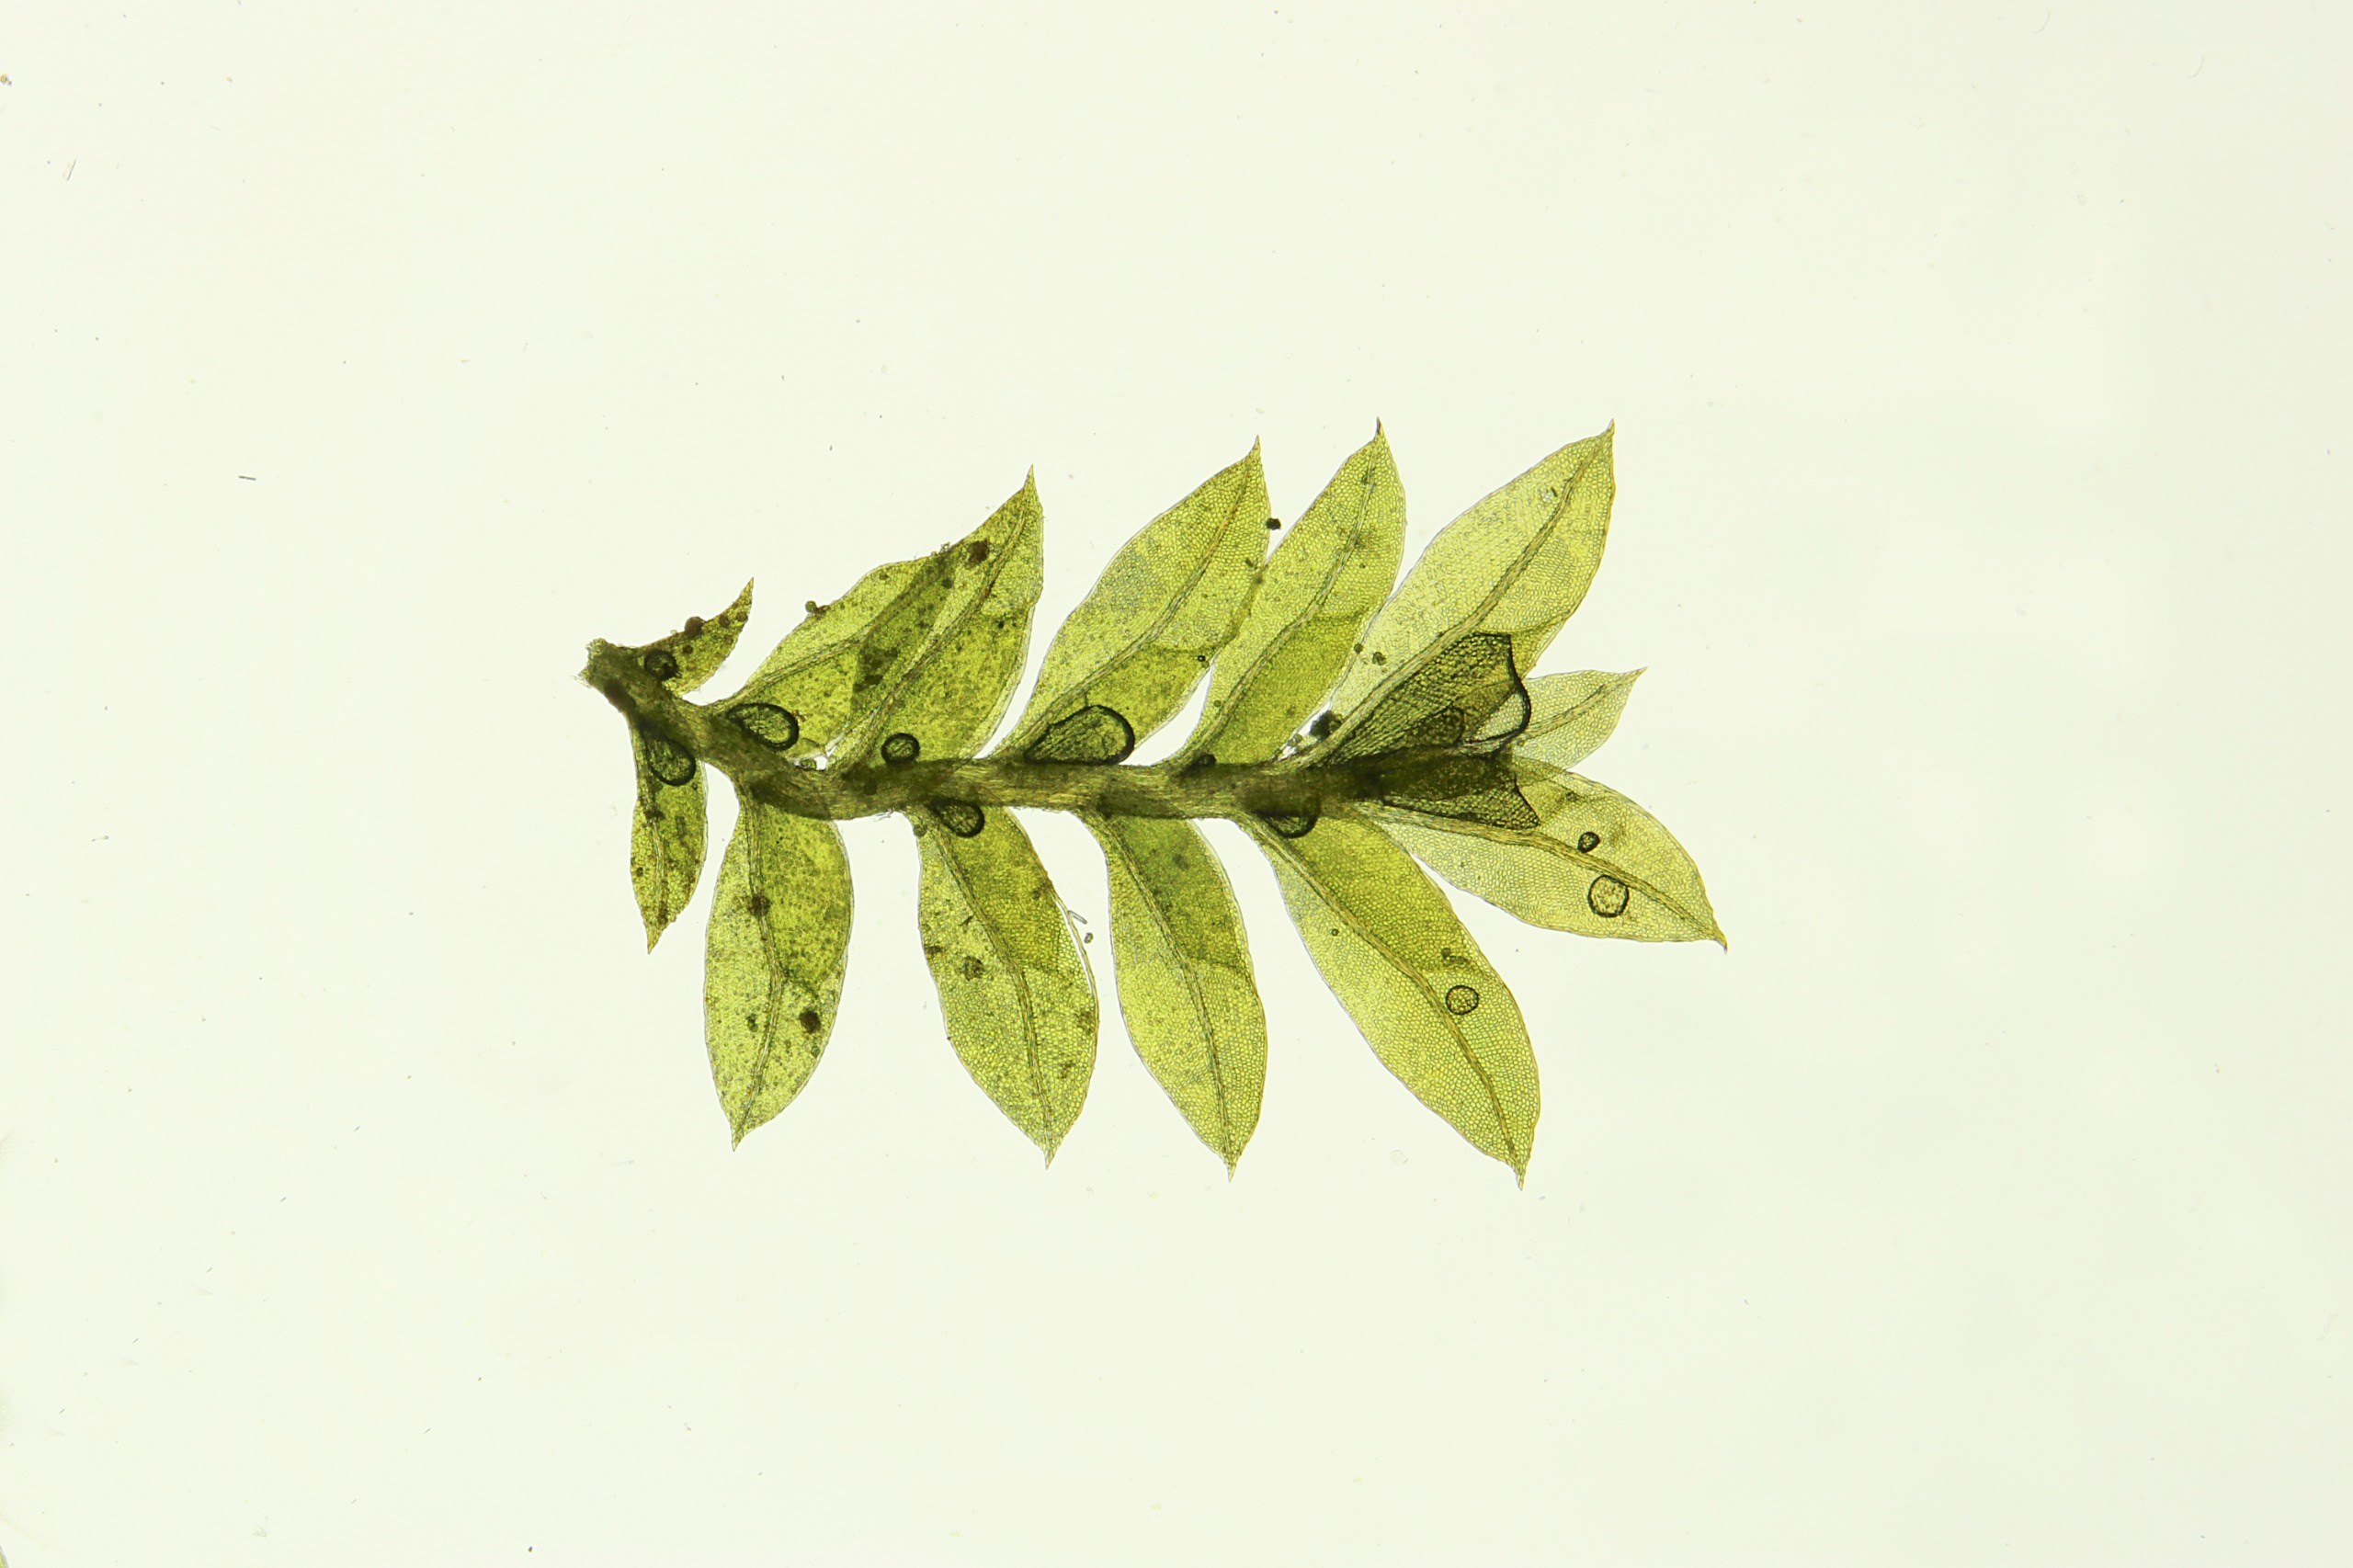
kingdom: Plantae
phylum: Bryophyta
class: Bryopsida
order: Dicranales
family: Fissidentaceae
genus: Fissidens
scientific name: Fissidens incurvus
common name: Nikkende rademos
